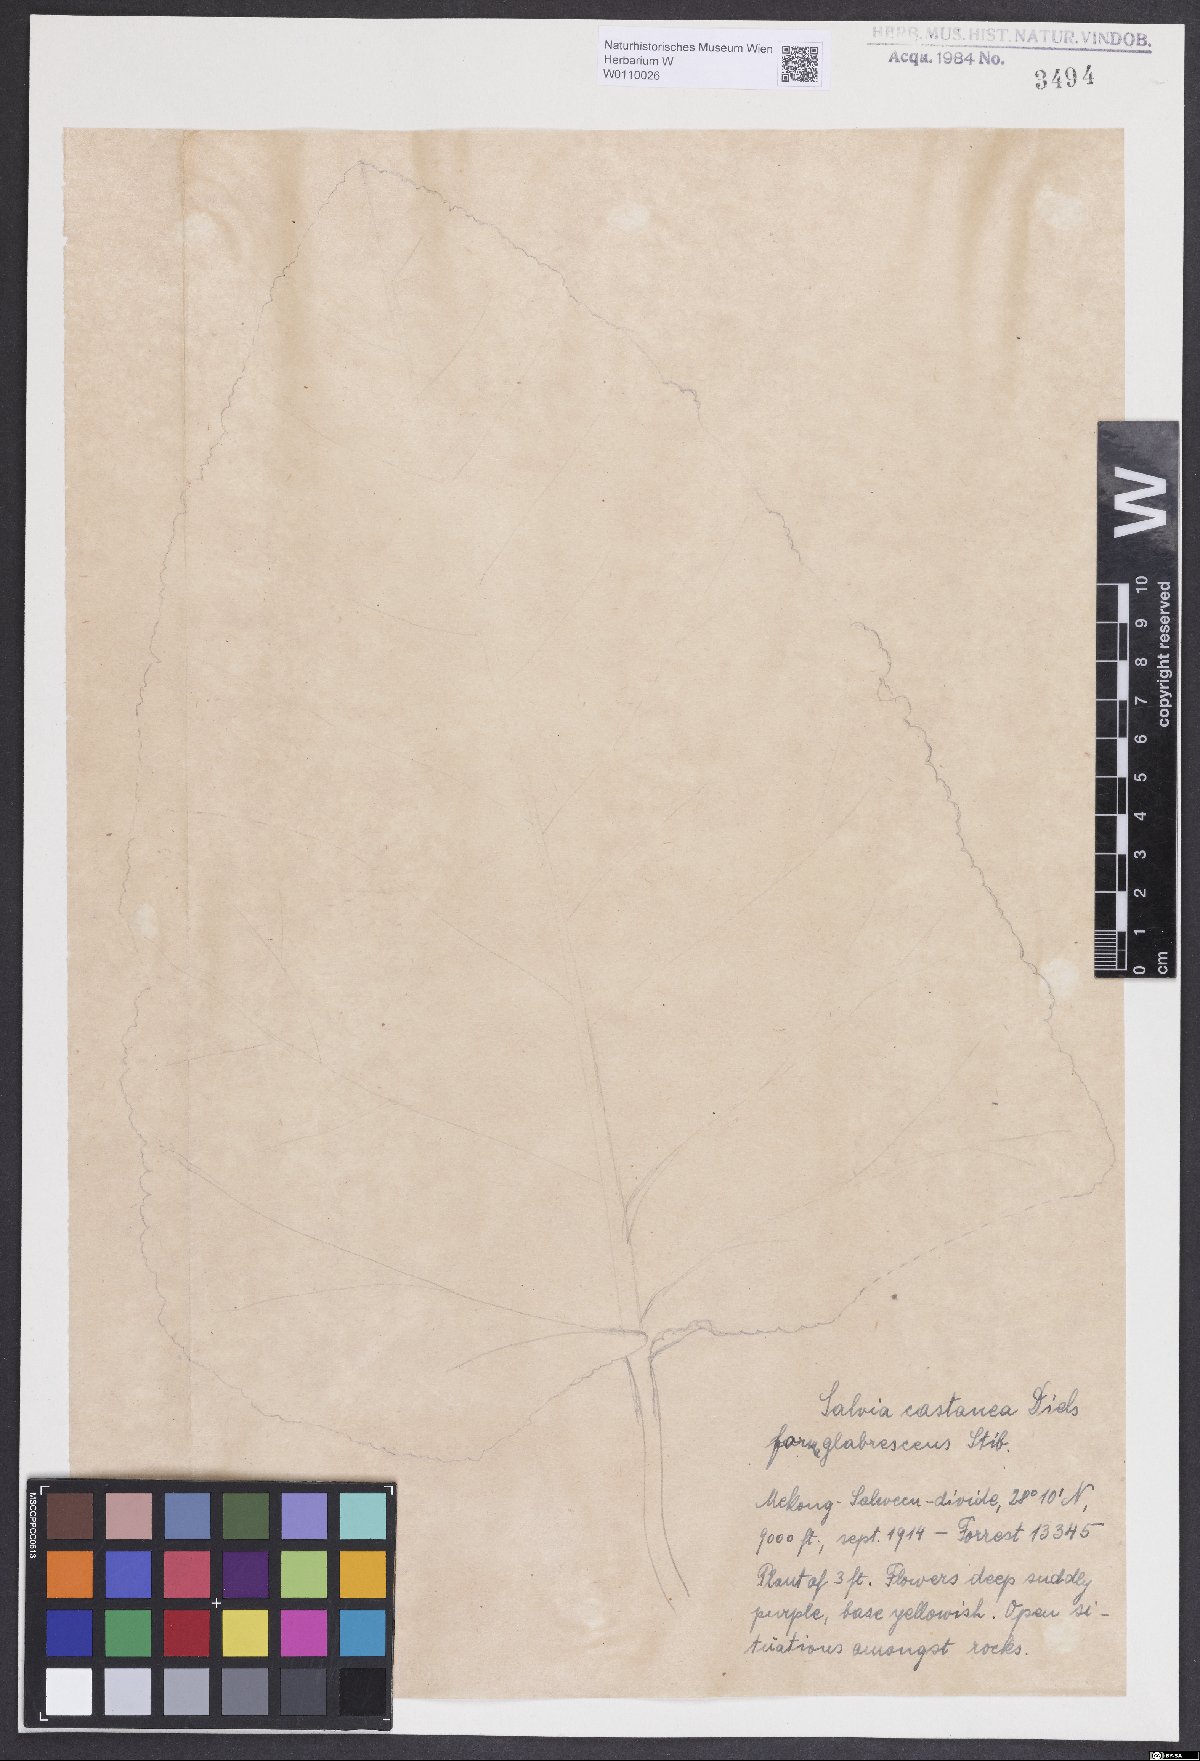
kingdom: Plantae
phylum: Tracheophyta
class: Magnoliopsida
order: Lamiales
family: Lamiaceae
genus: Salvia
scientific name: Salvia castanea
